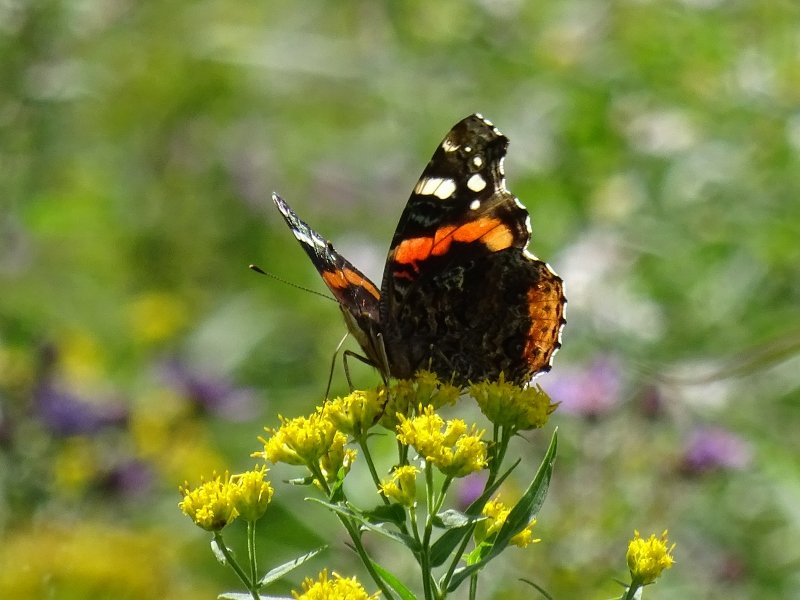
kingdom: Animalia
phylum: Arthropoda
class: Insecta
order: Lepidoptera
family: Nymphalidae
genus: Vanessa
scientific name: Vanessa atalanta
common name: Red Admiral
